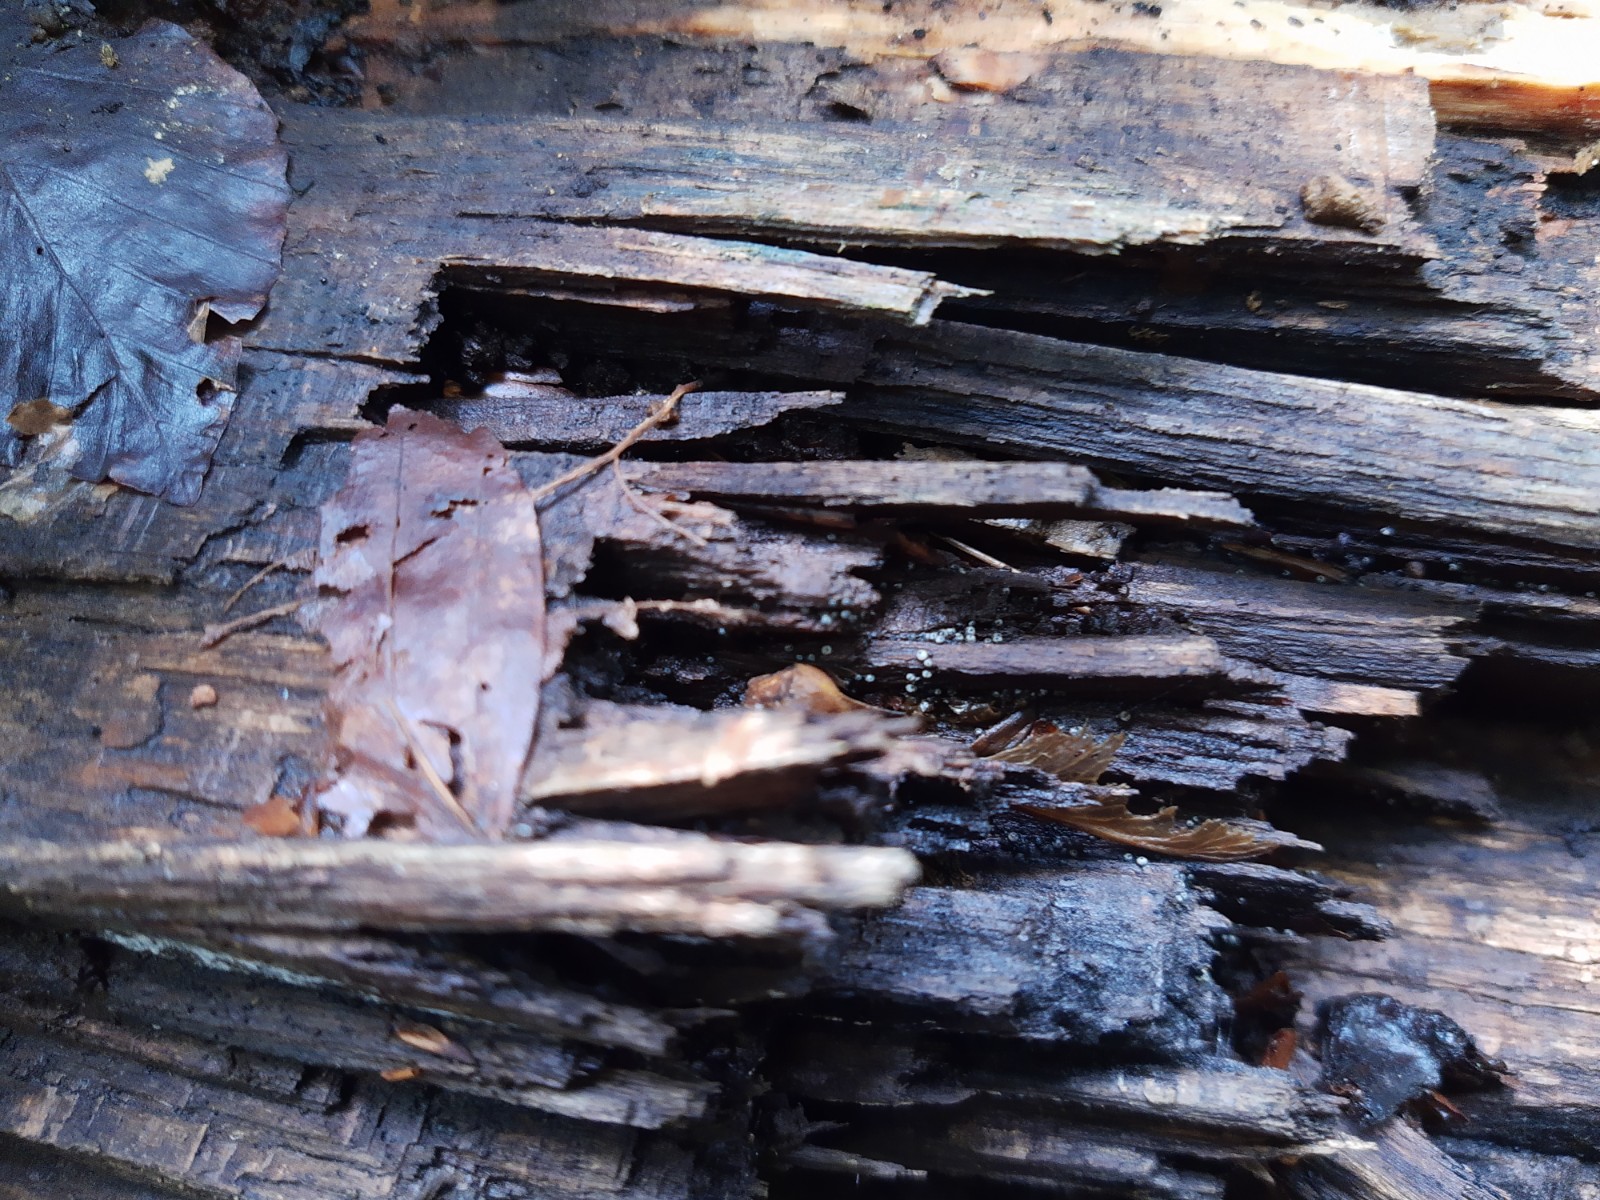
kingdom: Fungi
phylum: Ascomycota
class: Sordariomycetes
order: Sordariales
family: Lasiosphaeriaceae
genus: Lasiosphaeria
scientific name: Lasiosphaeria ovina
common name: fåre-kernesvamp
